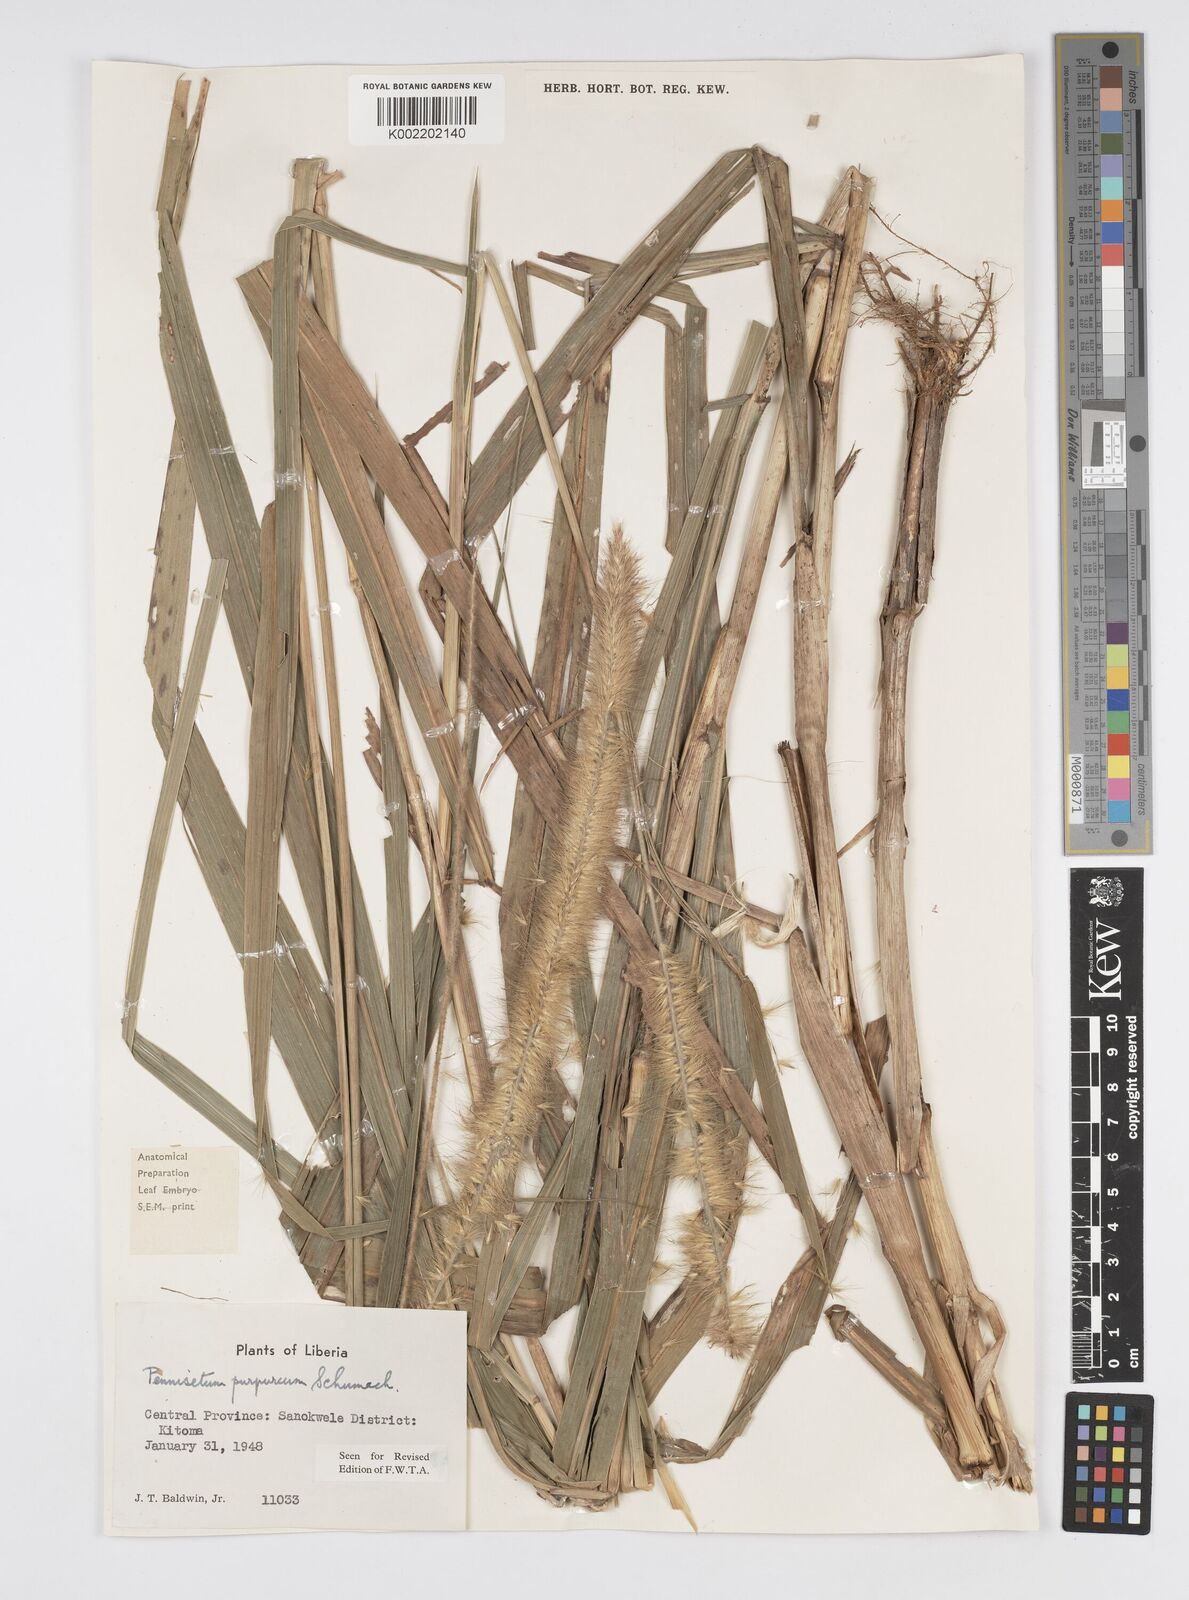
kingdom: Plantae
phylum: Tracheophyta
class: Liliopsida
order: Poales
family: Poaceae
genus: Cenchrus
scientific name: Cenchrus purpureus
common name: Elephant grass
